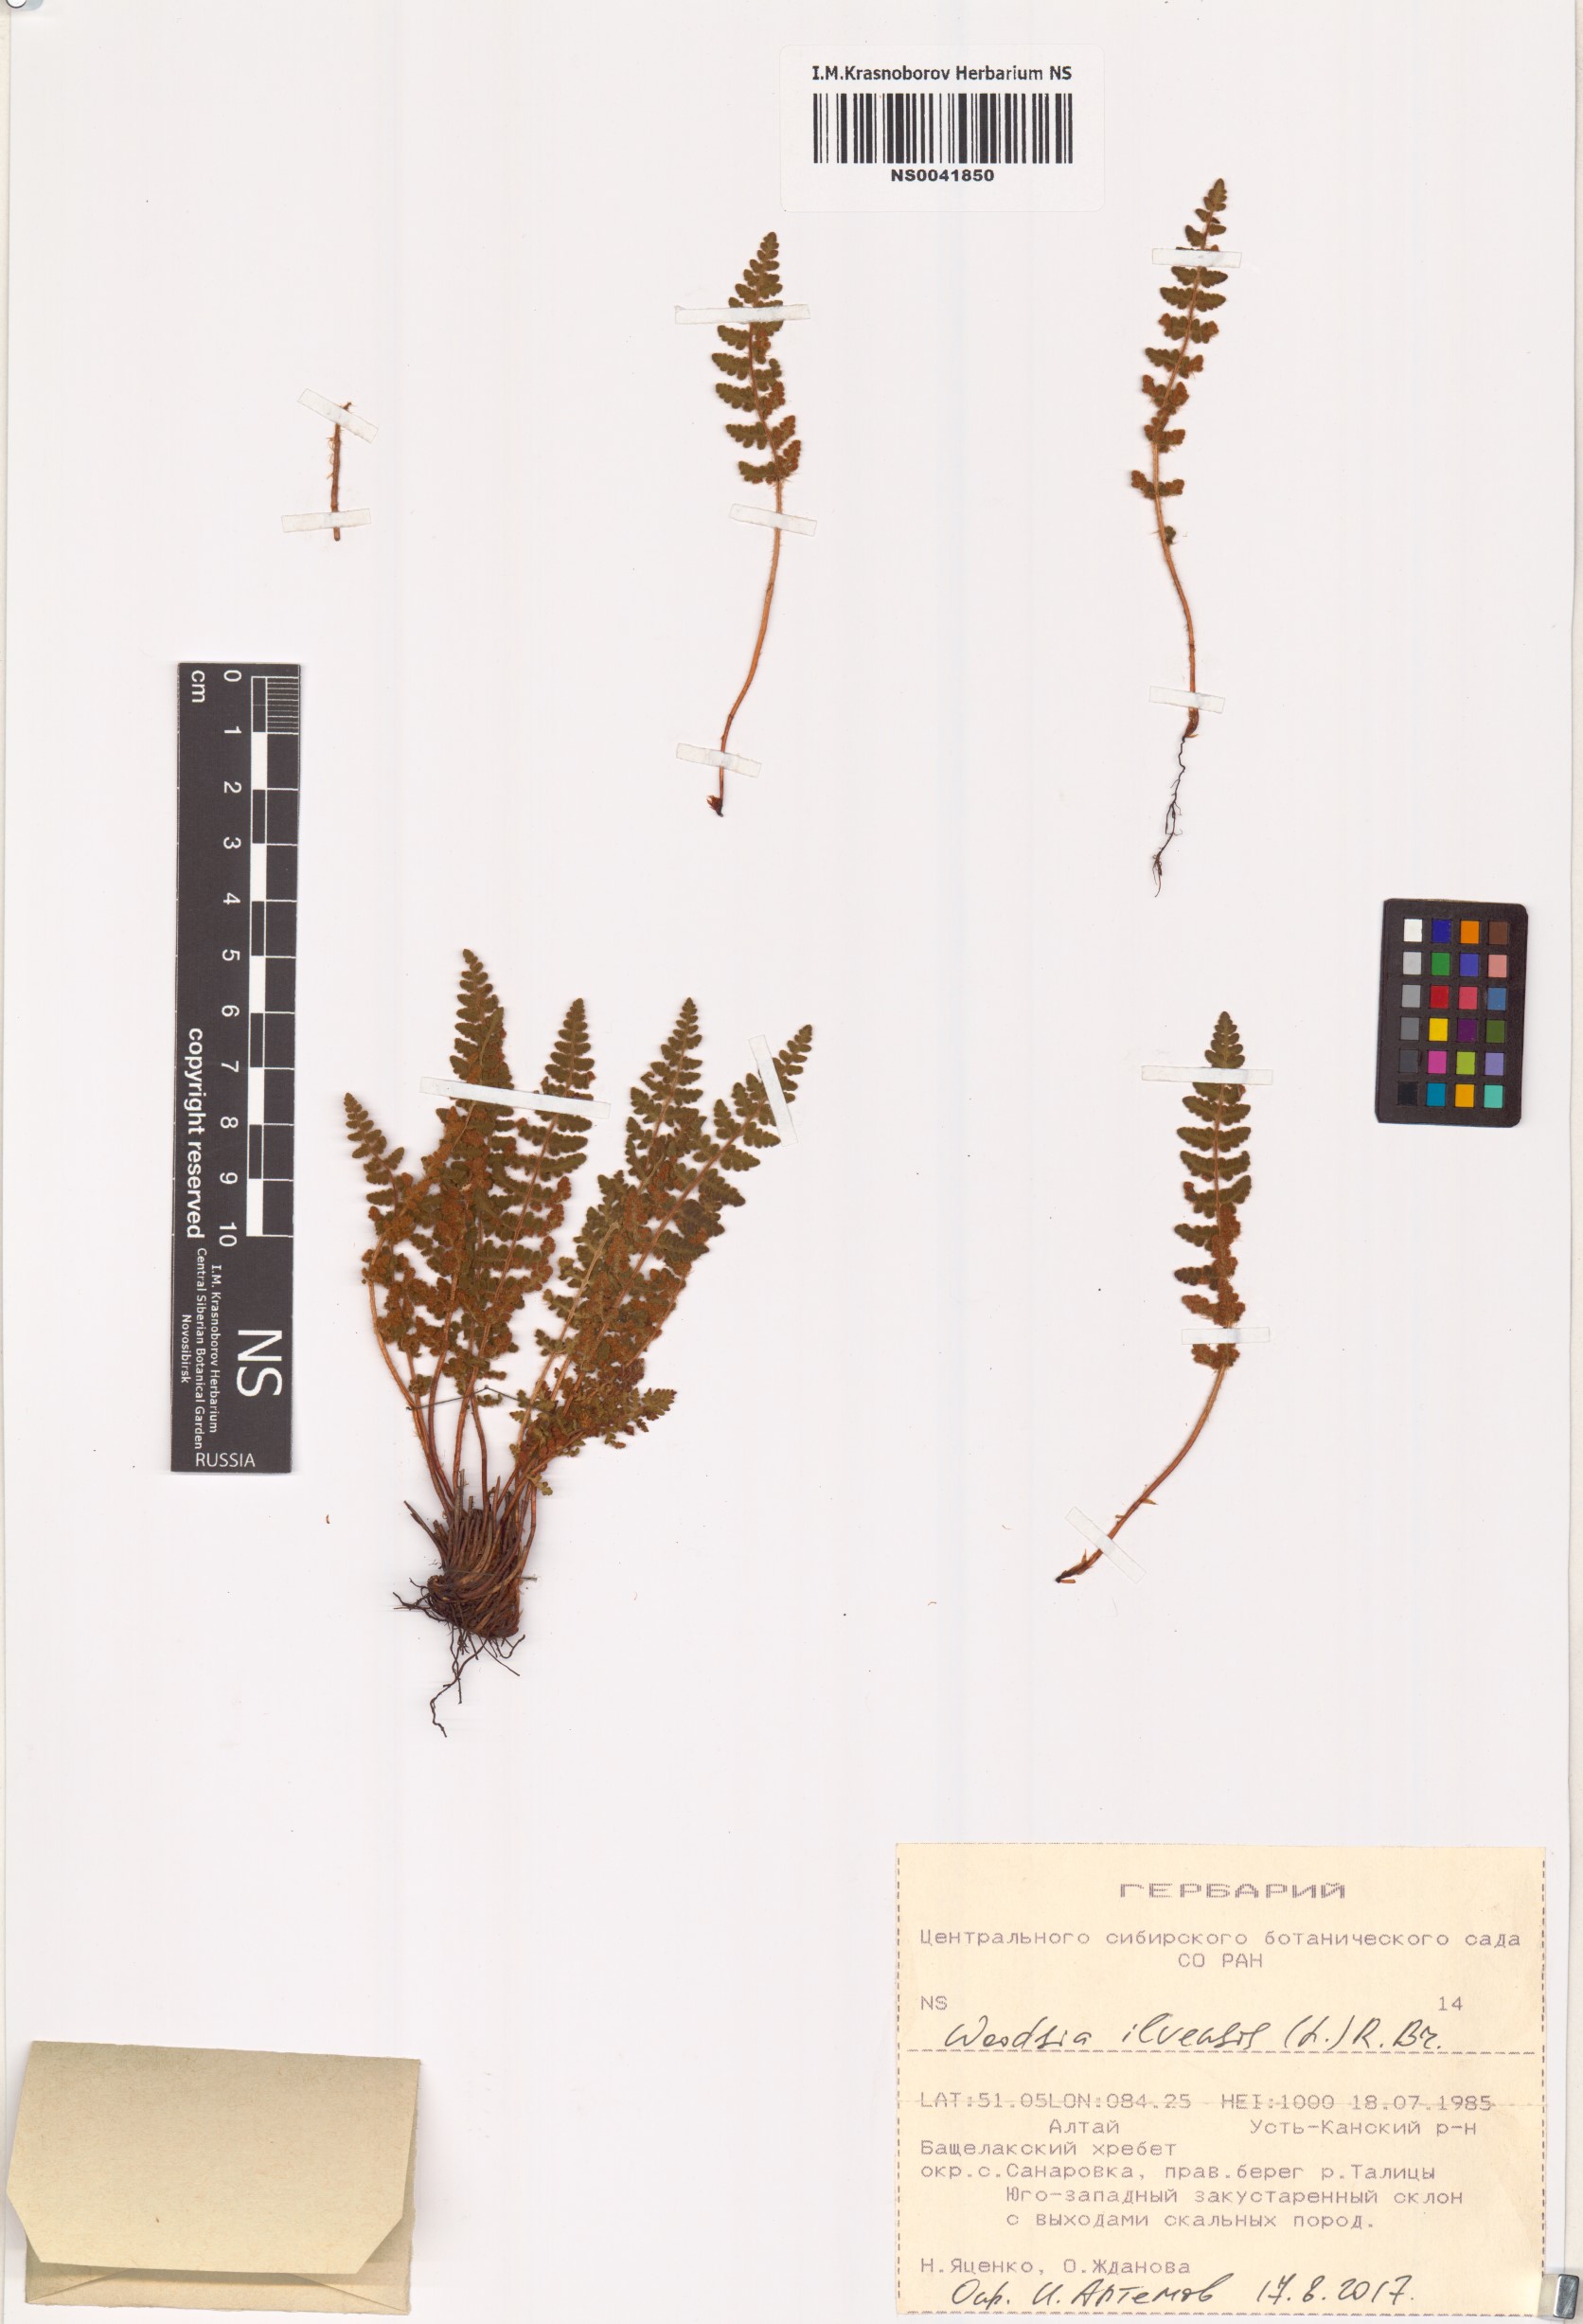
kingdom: Plantae
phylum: Tracheophyta
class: Polypodiopsida
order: Polypodiales
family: Woodsiaceae
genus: Woodsia
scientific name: Woodsia ilvensis
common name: Fragrant woodsia
